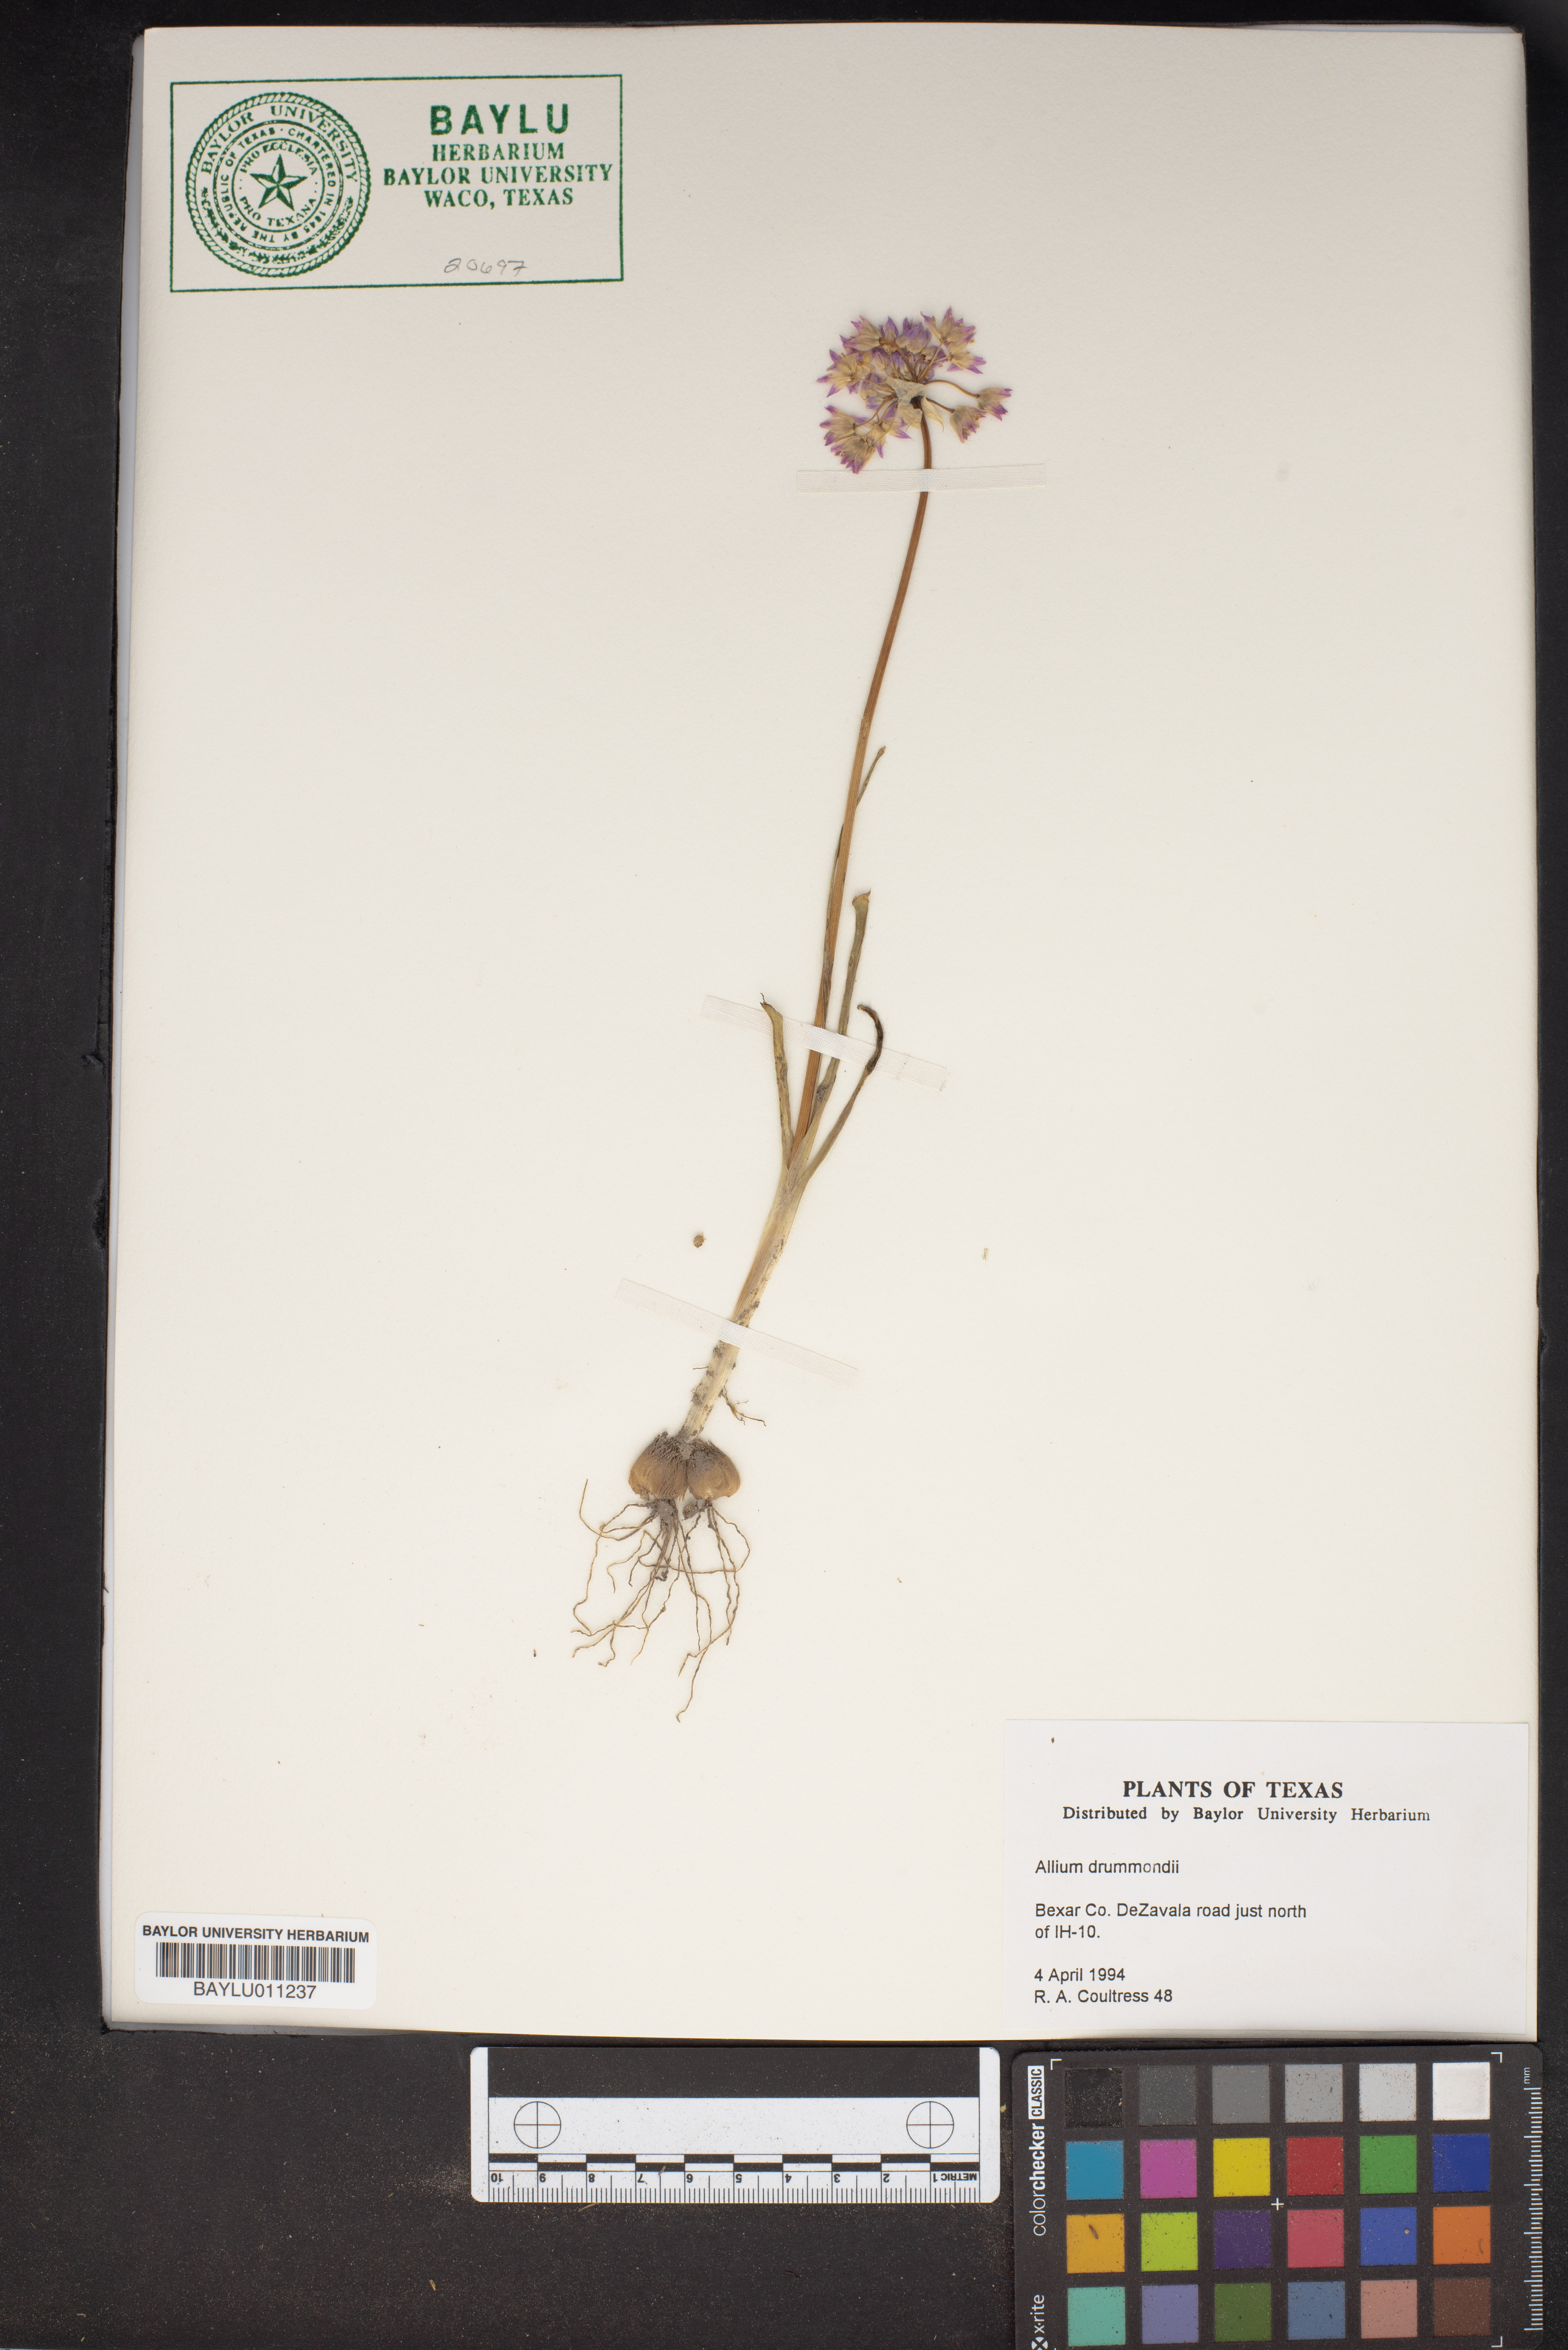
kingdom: Plantae
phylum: Tracheophyta
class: Liliopsida
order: Asparagales
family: Amaryllidaceae
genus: Allium
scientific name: Allium drummondii
